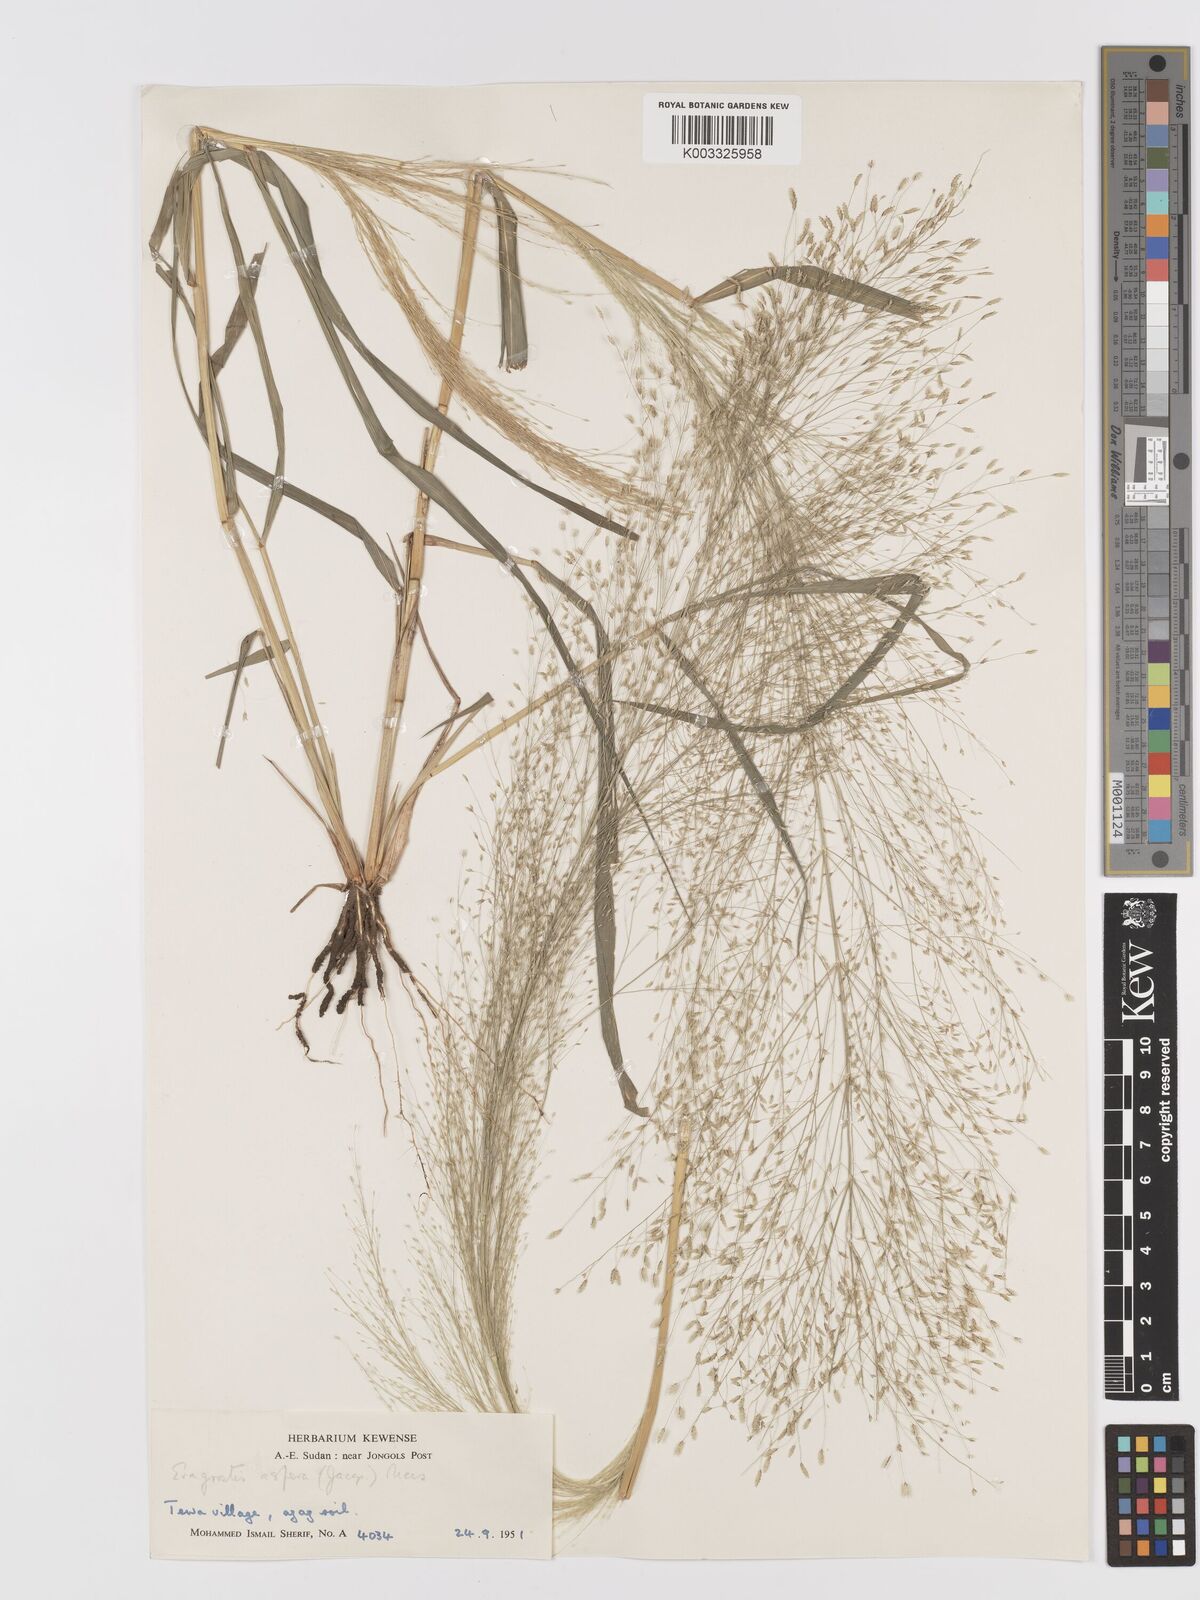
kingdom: Plantae
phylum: Tracheophyta
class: Liliopsida
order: Poales
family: Poaceae
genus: Eragrostis
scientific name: Eragrostis aspera
